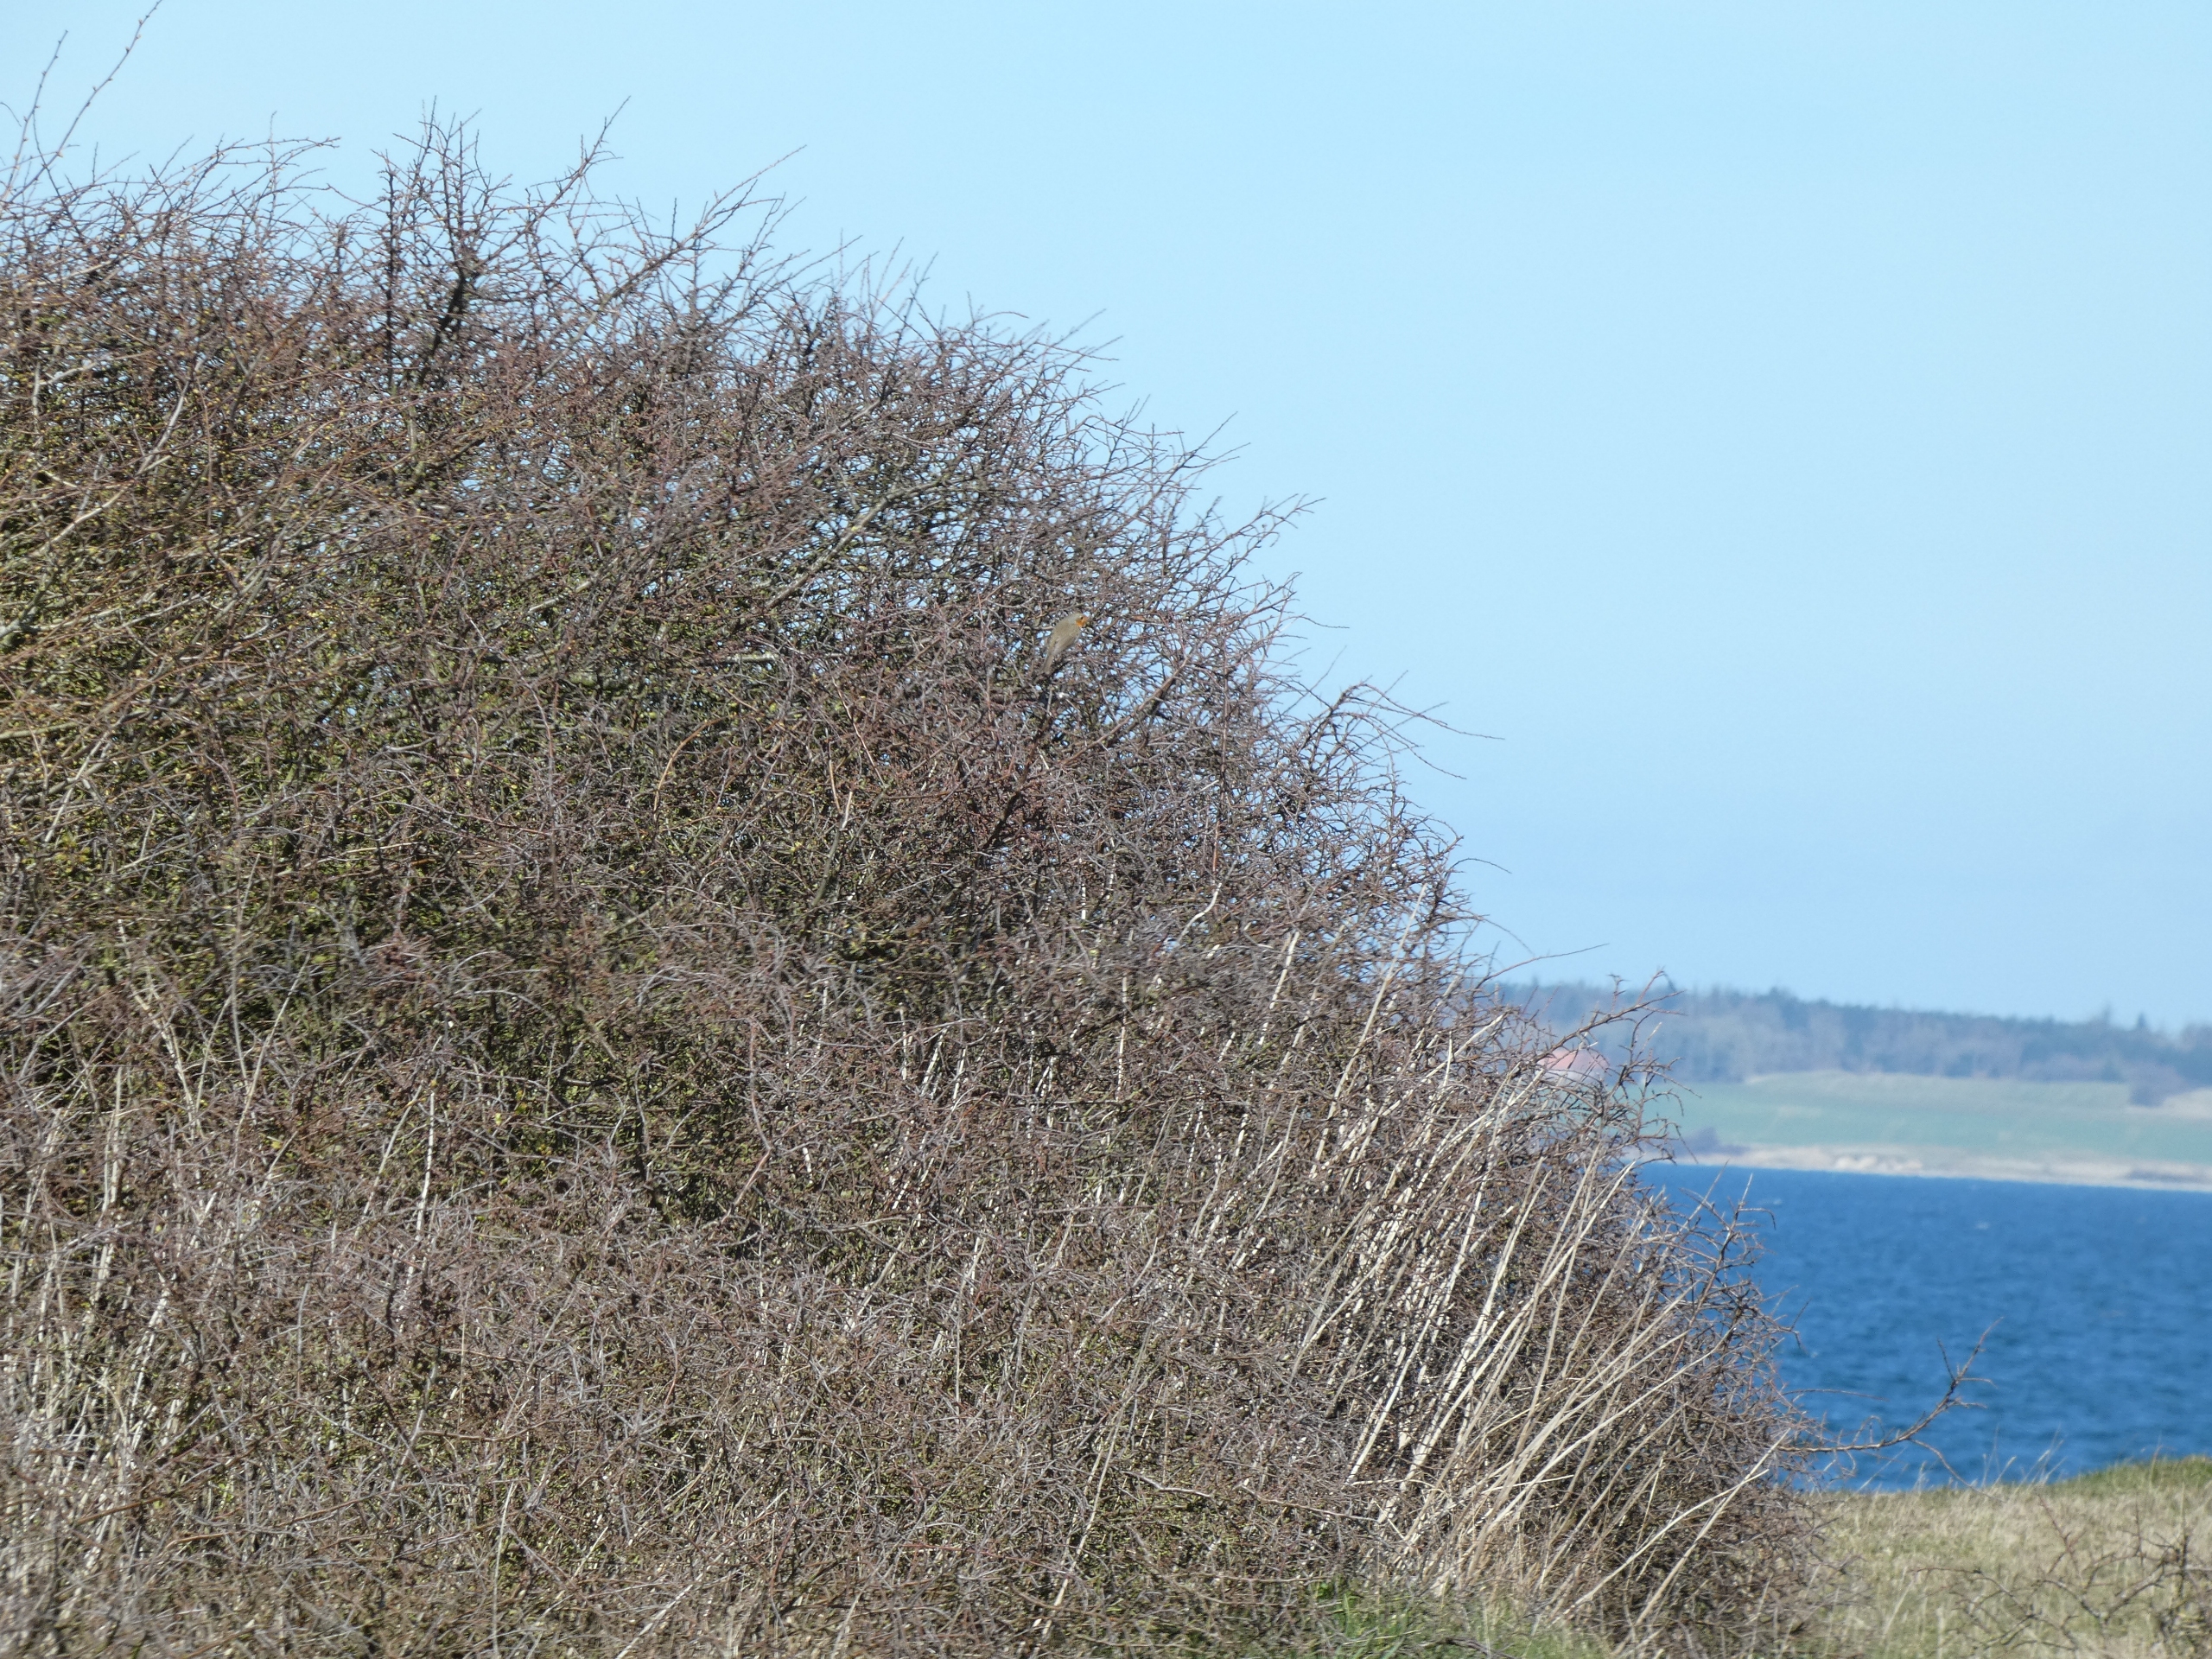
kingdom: Animalia
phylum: Chordata
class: Aves
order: Passeriformes
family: Muscicapidae
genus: Erithacus
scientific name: Erithacus rubecula
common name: Rødhals/rødkælk
